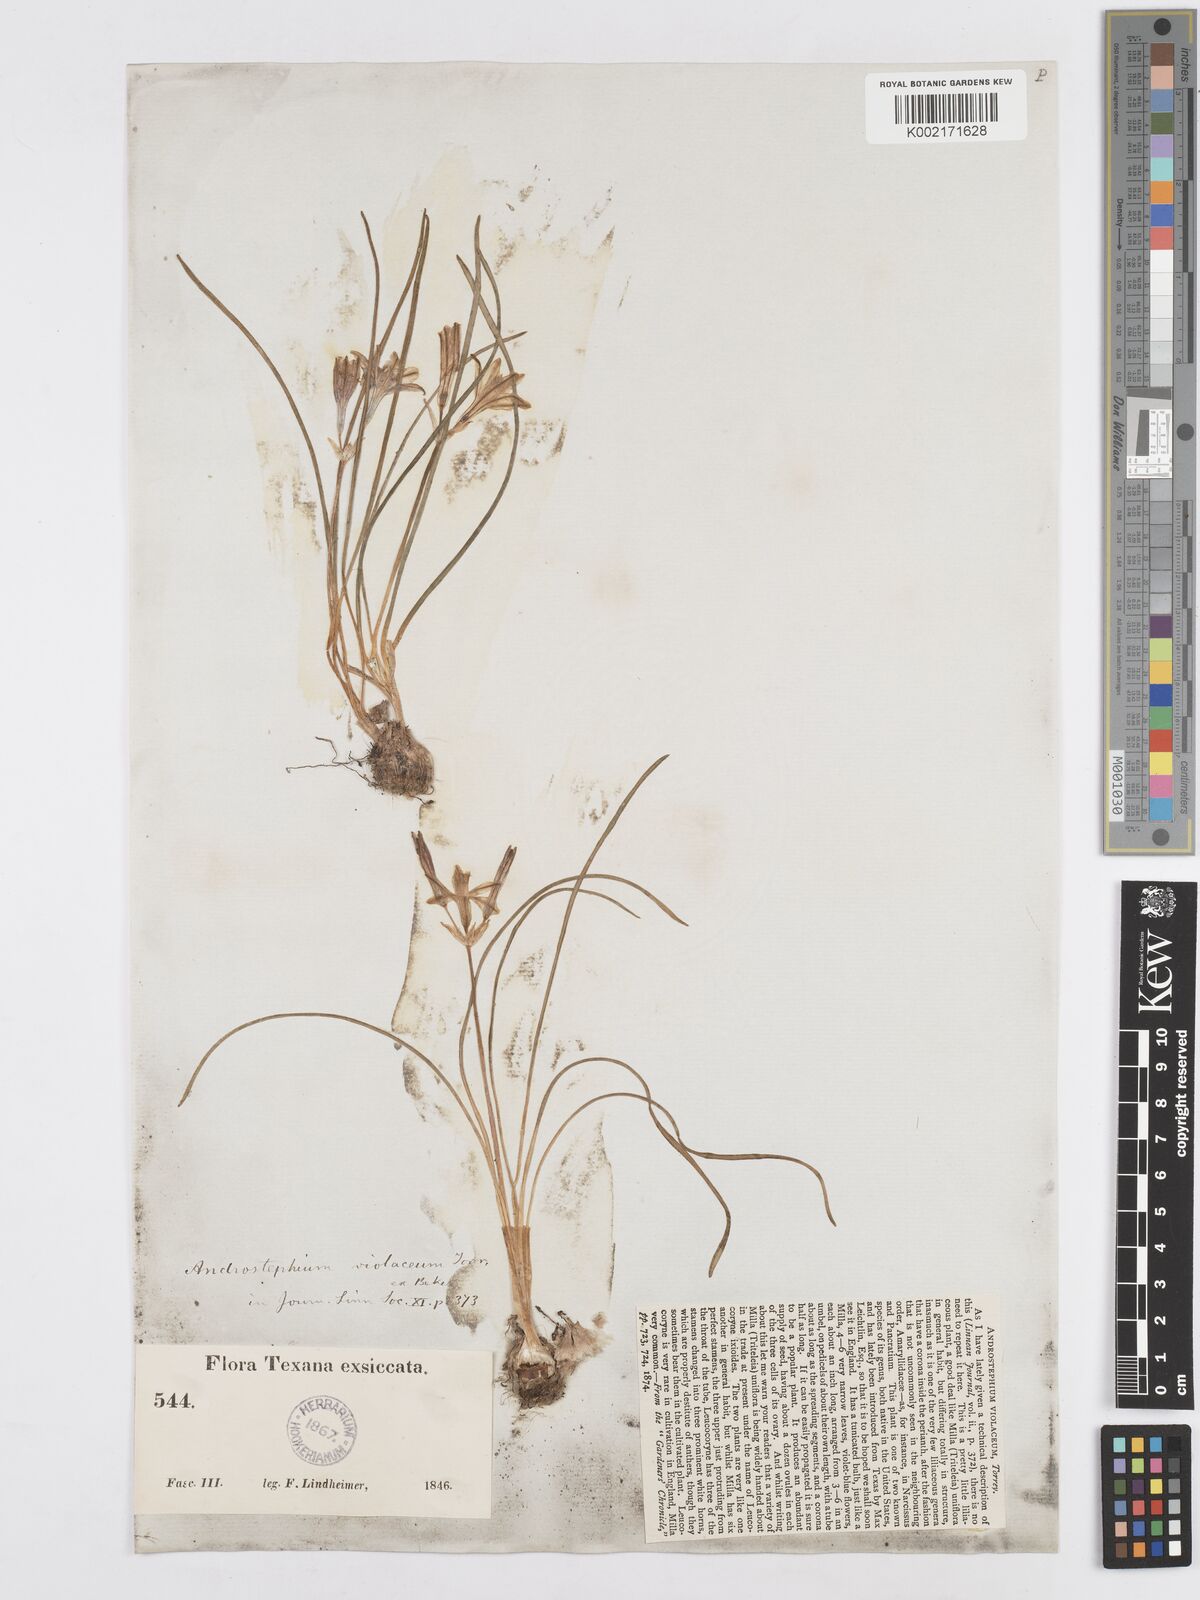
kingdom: Plantae
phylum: Tracheophyta
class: Liliopsida
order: Asparagales
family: Asparagaceae
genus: Androstephium
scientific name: Androstephium coeruleum
